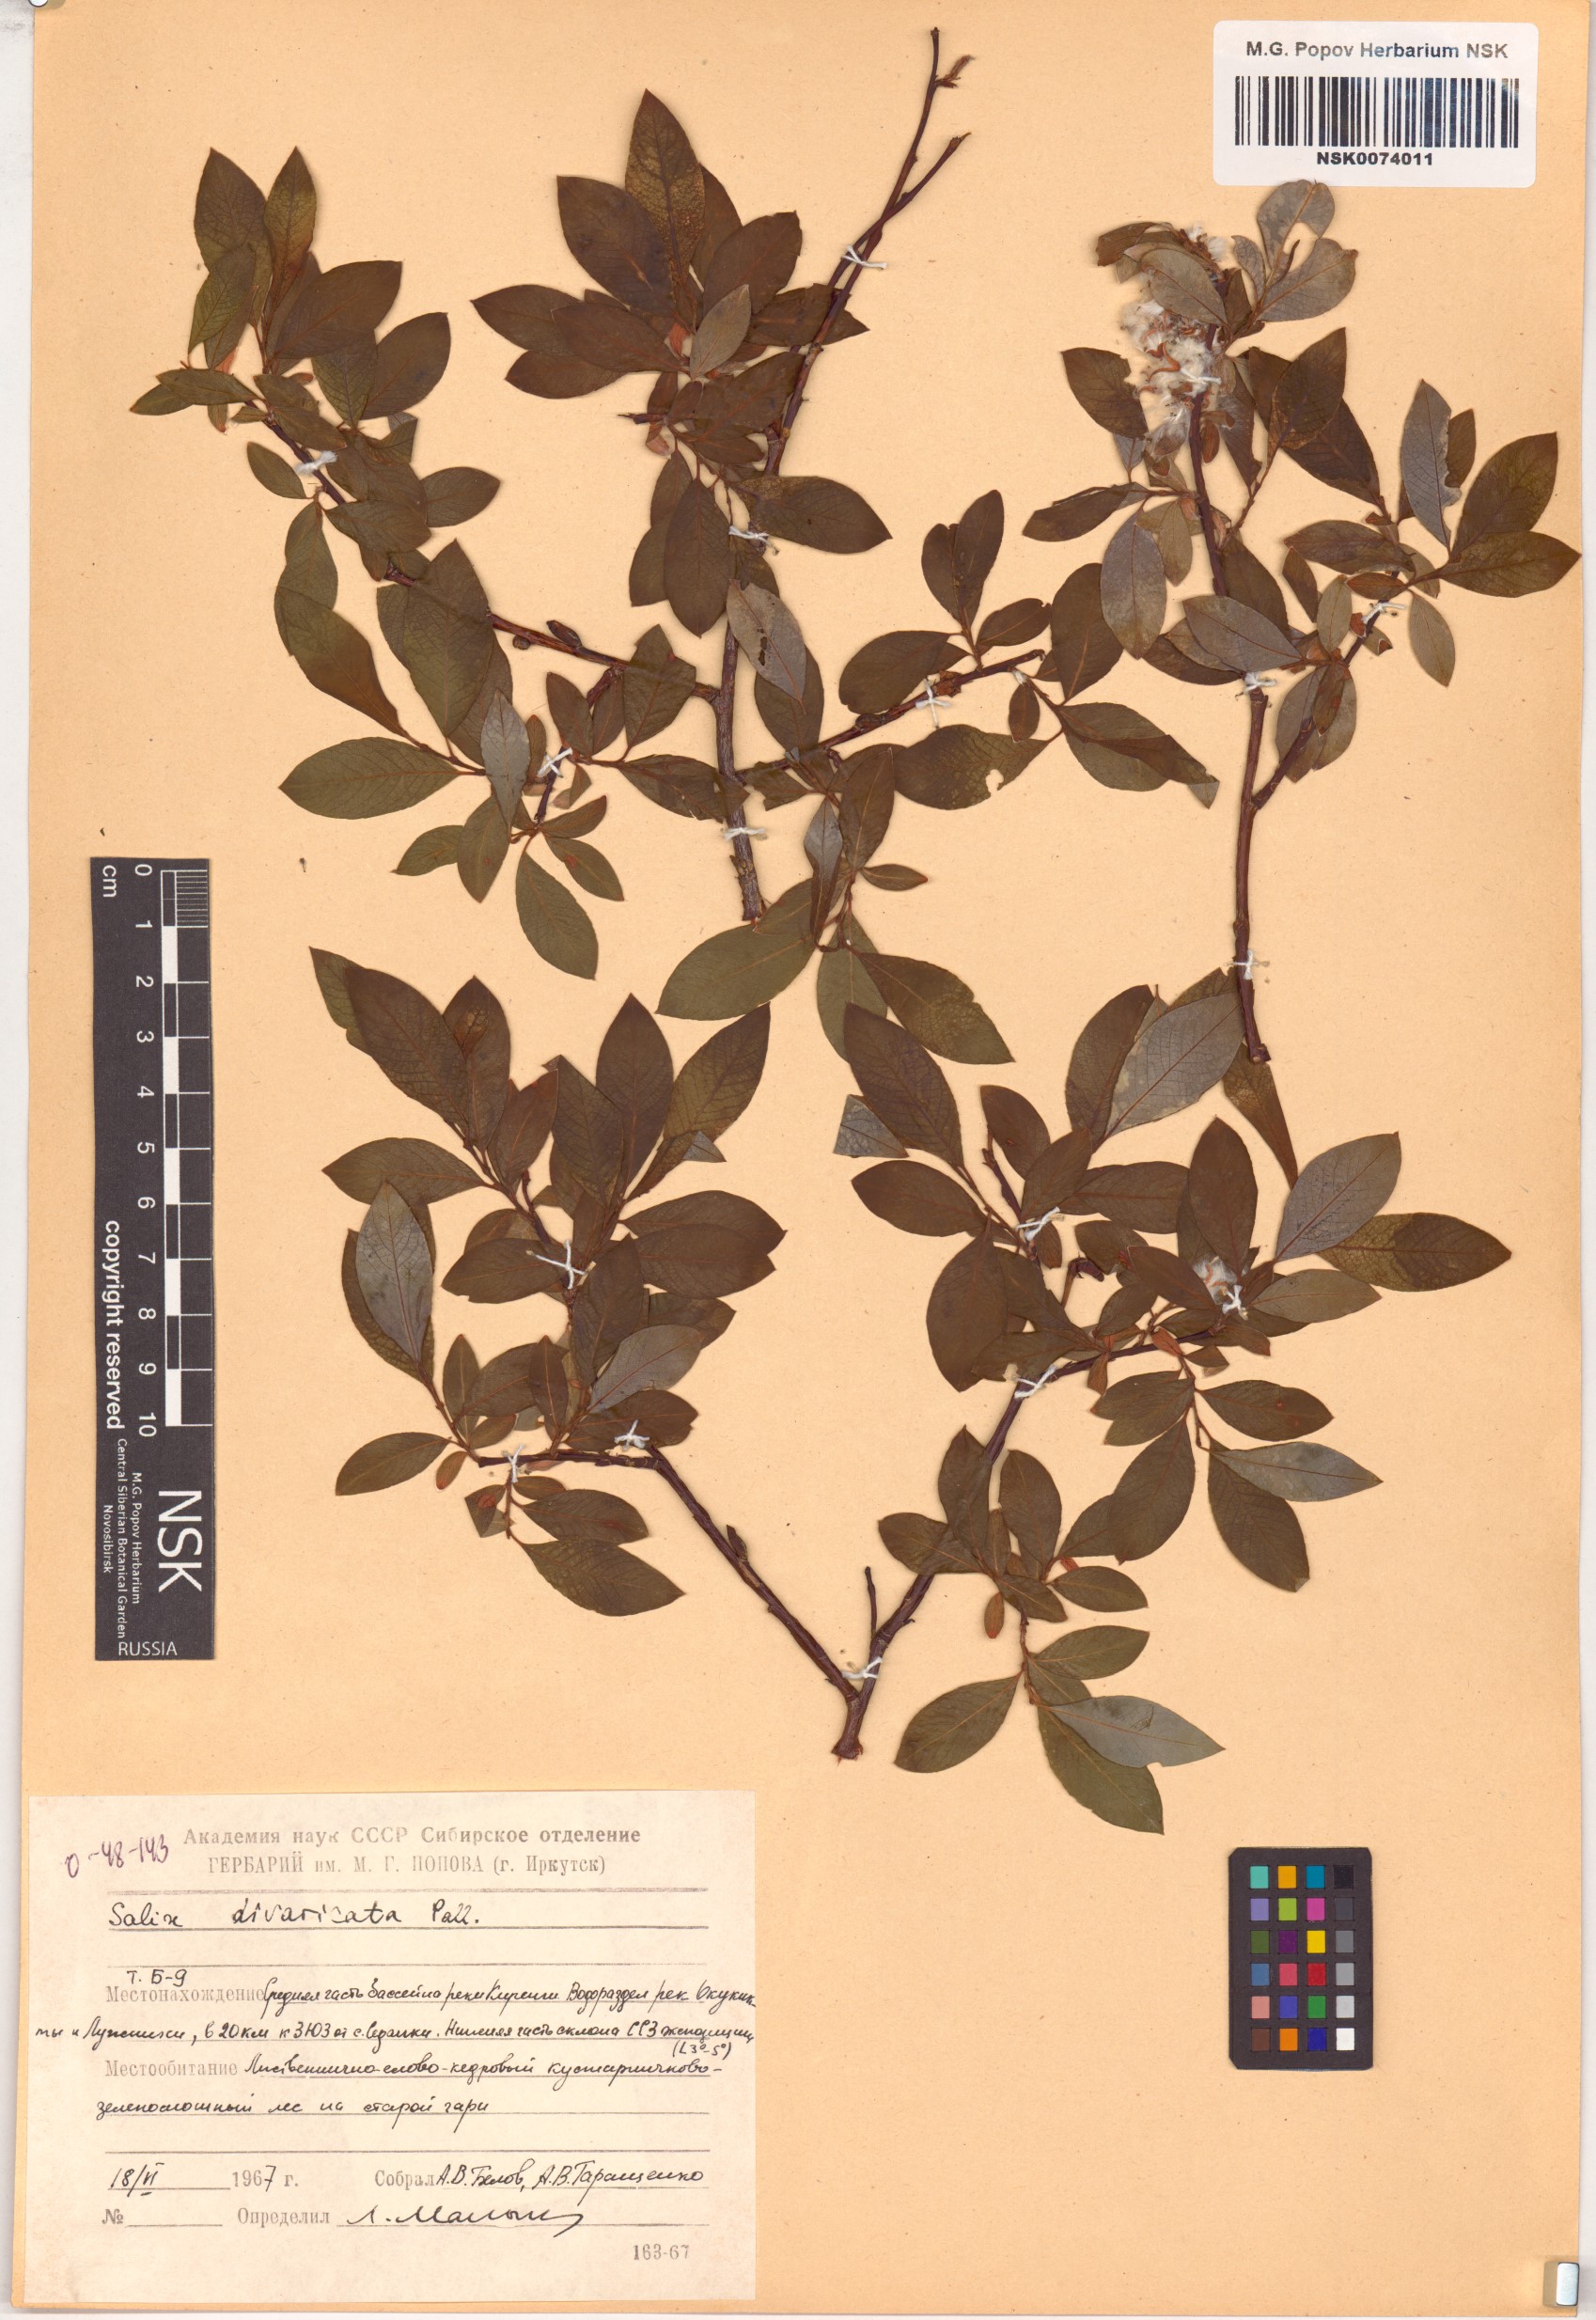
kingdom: Plantae
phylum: Tracheophyta
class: Magnoliopsida
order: Malpighiales
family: Salicaceae
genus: Salix
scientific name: Salix divaricata
